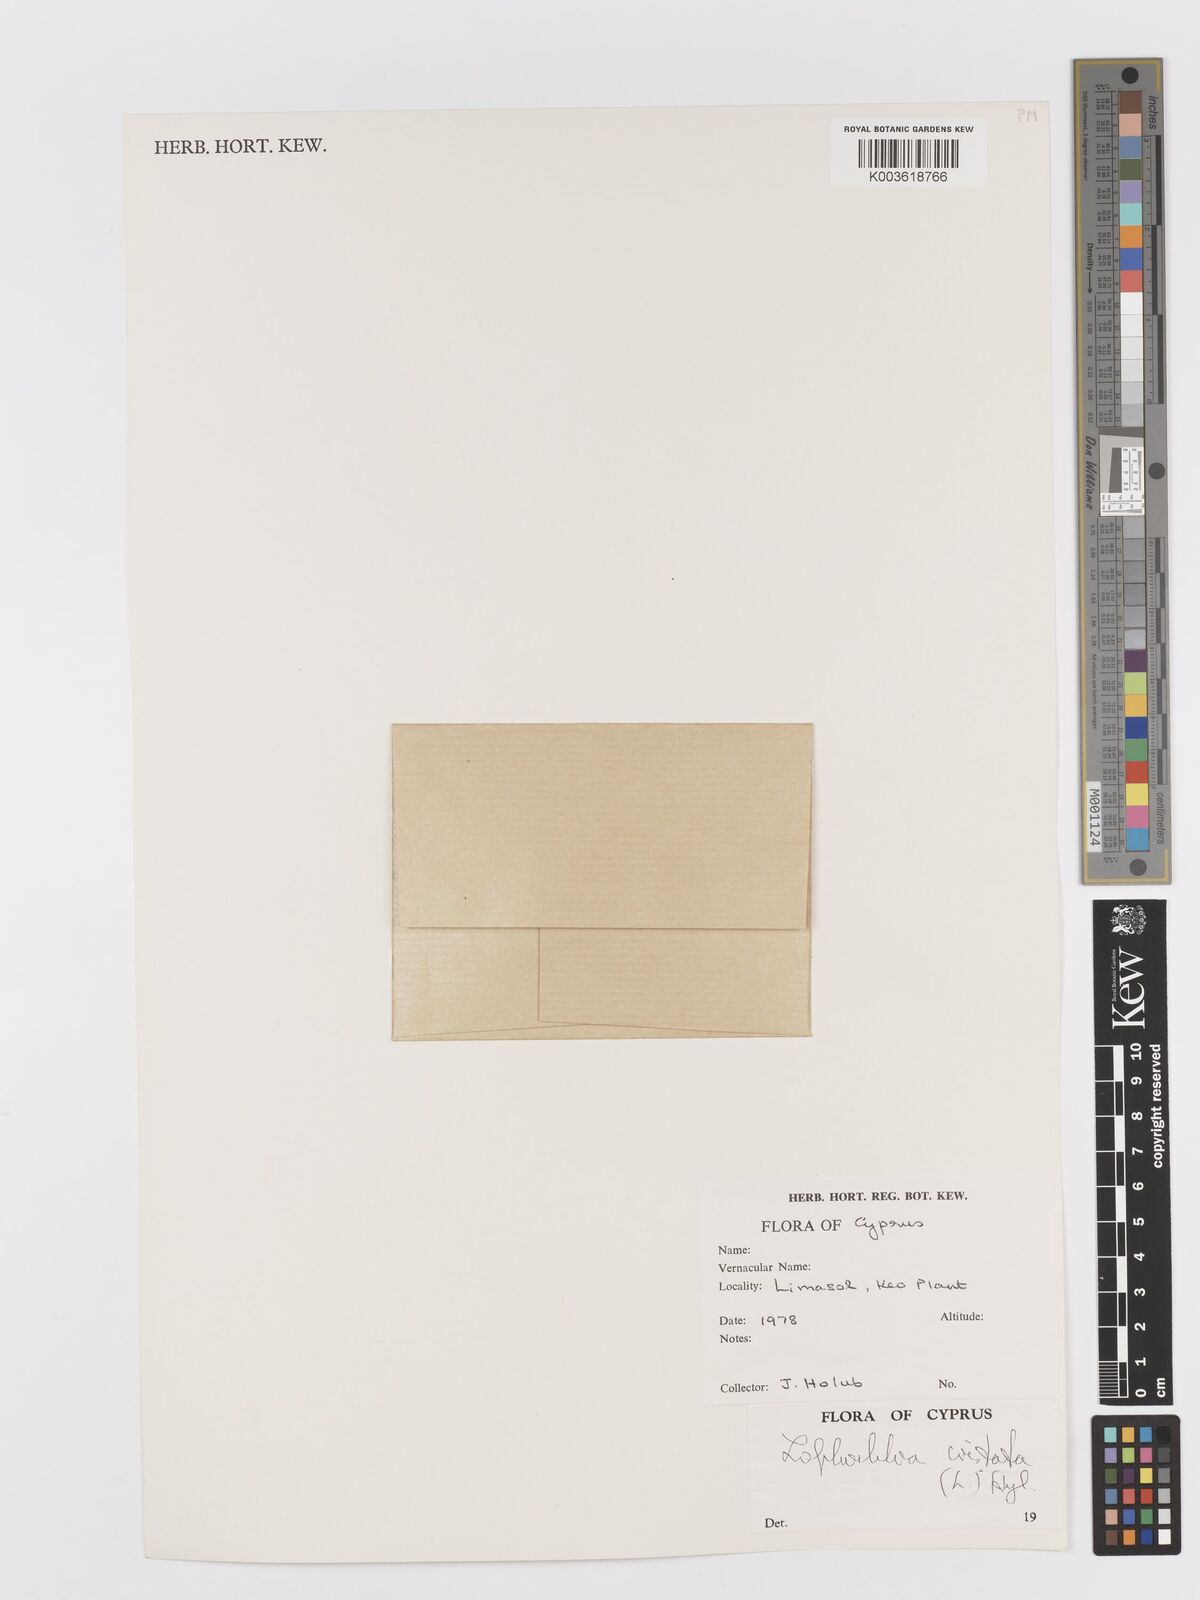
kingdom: Plantae
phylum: Tracheophyta
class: Liliopsida
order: Poales
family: Poaceae
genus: Rostraria
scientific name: Rostraria cristata
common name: Mediterranean hair-grass
